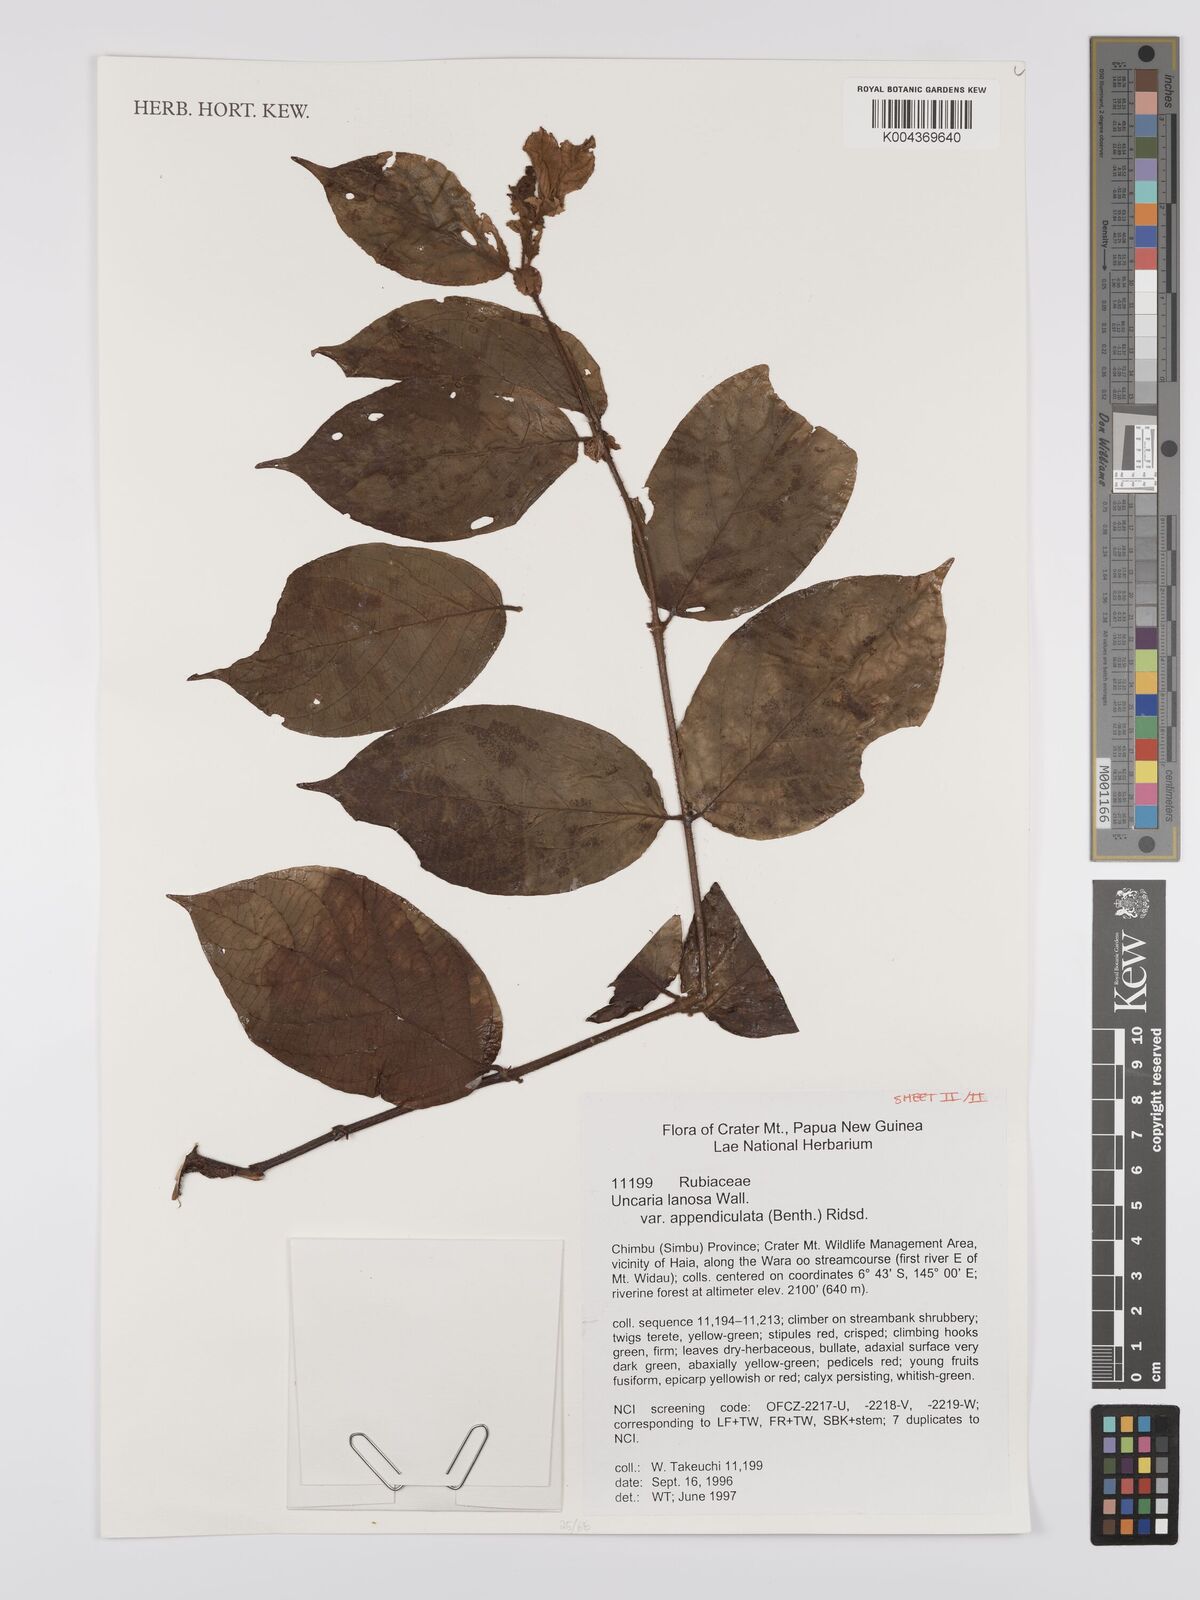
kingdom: Plantae
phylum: Tracheophyta
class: Magnoliopsida
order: Gentianales
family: Rubiaceae
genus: Uncaria
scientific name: Uncaria lanosa
